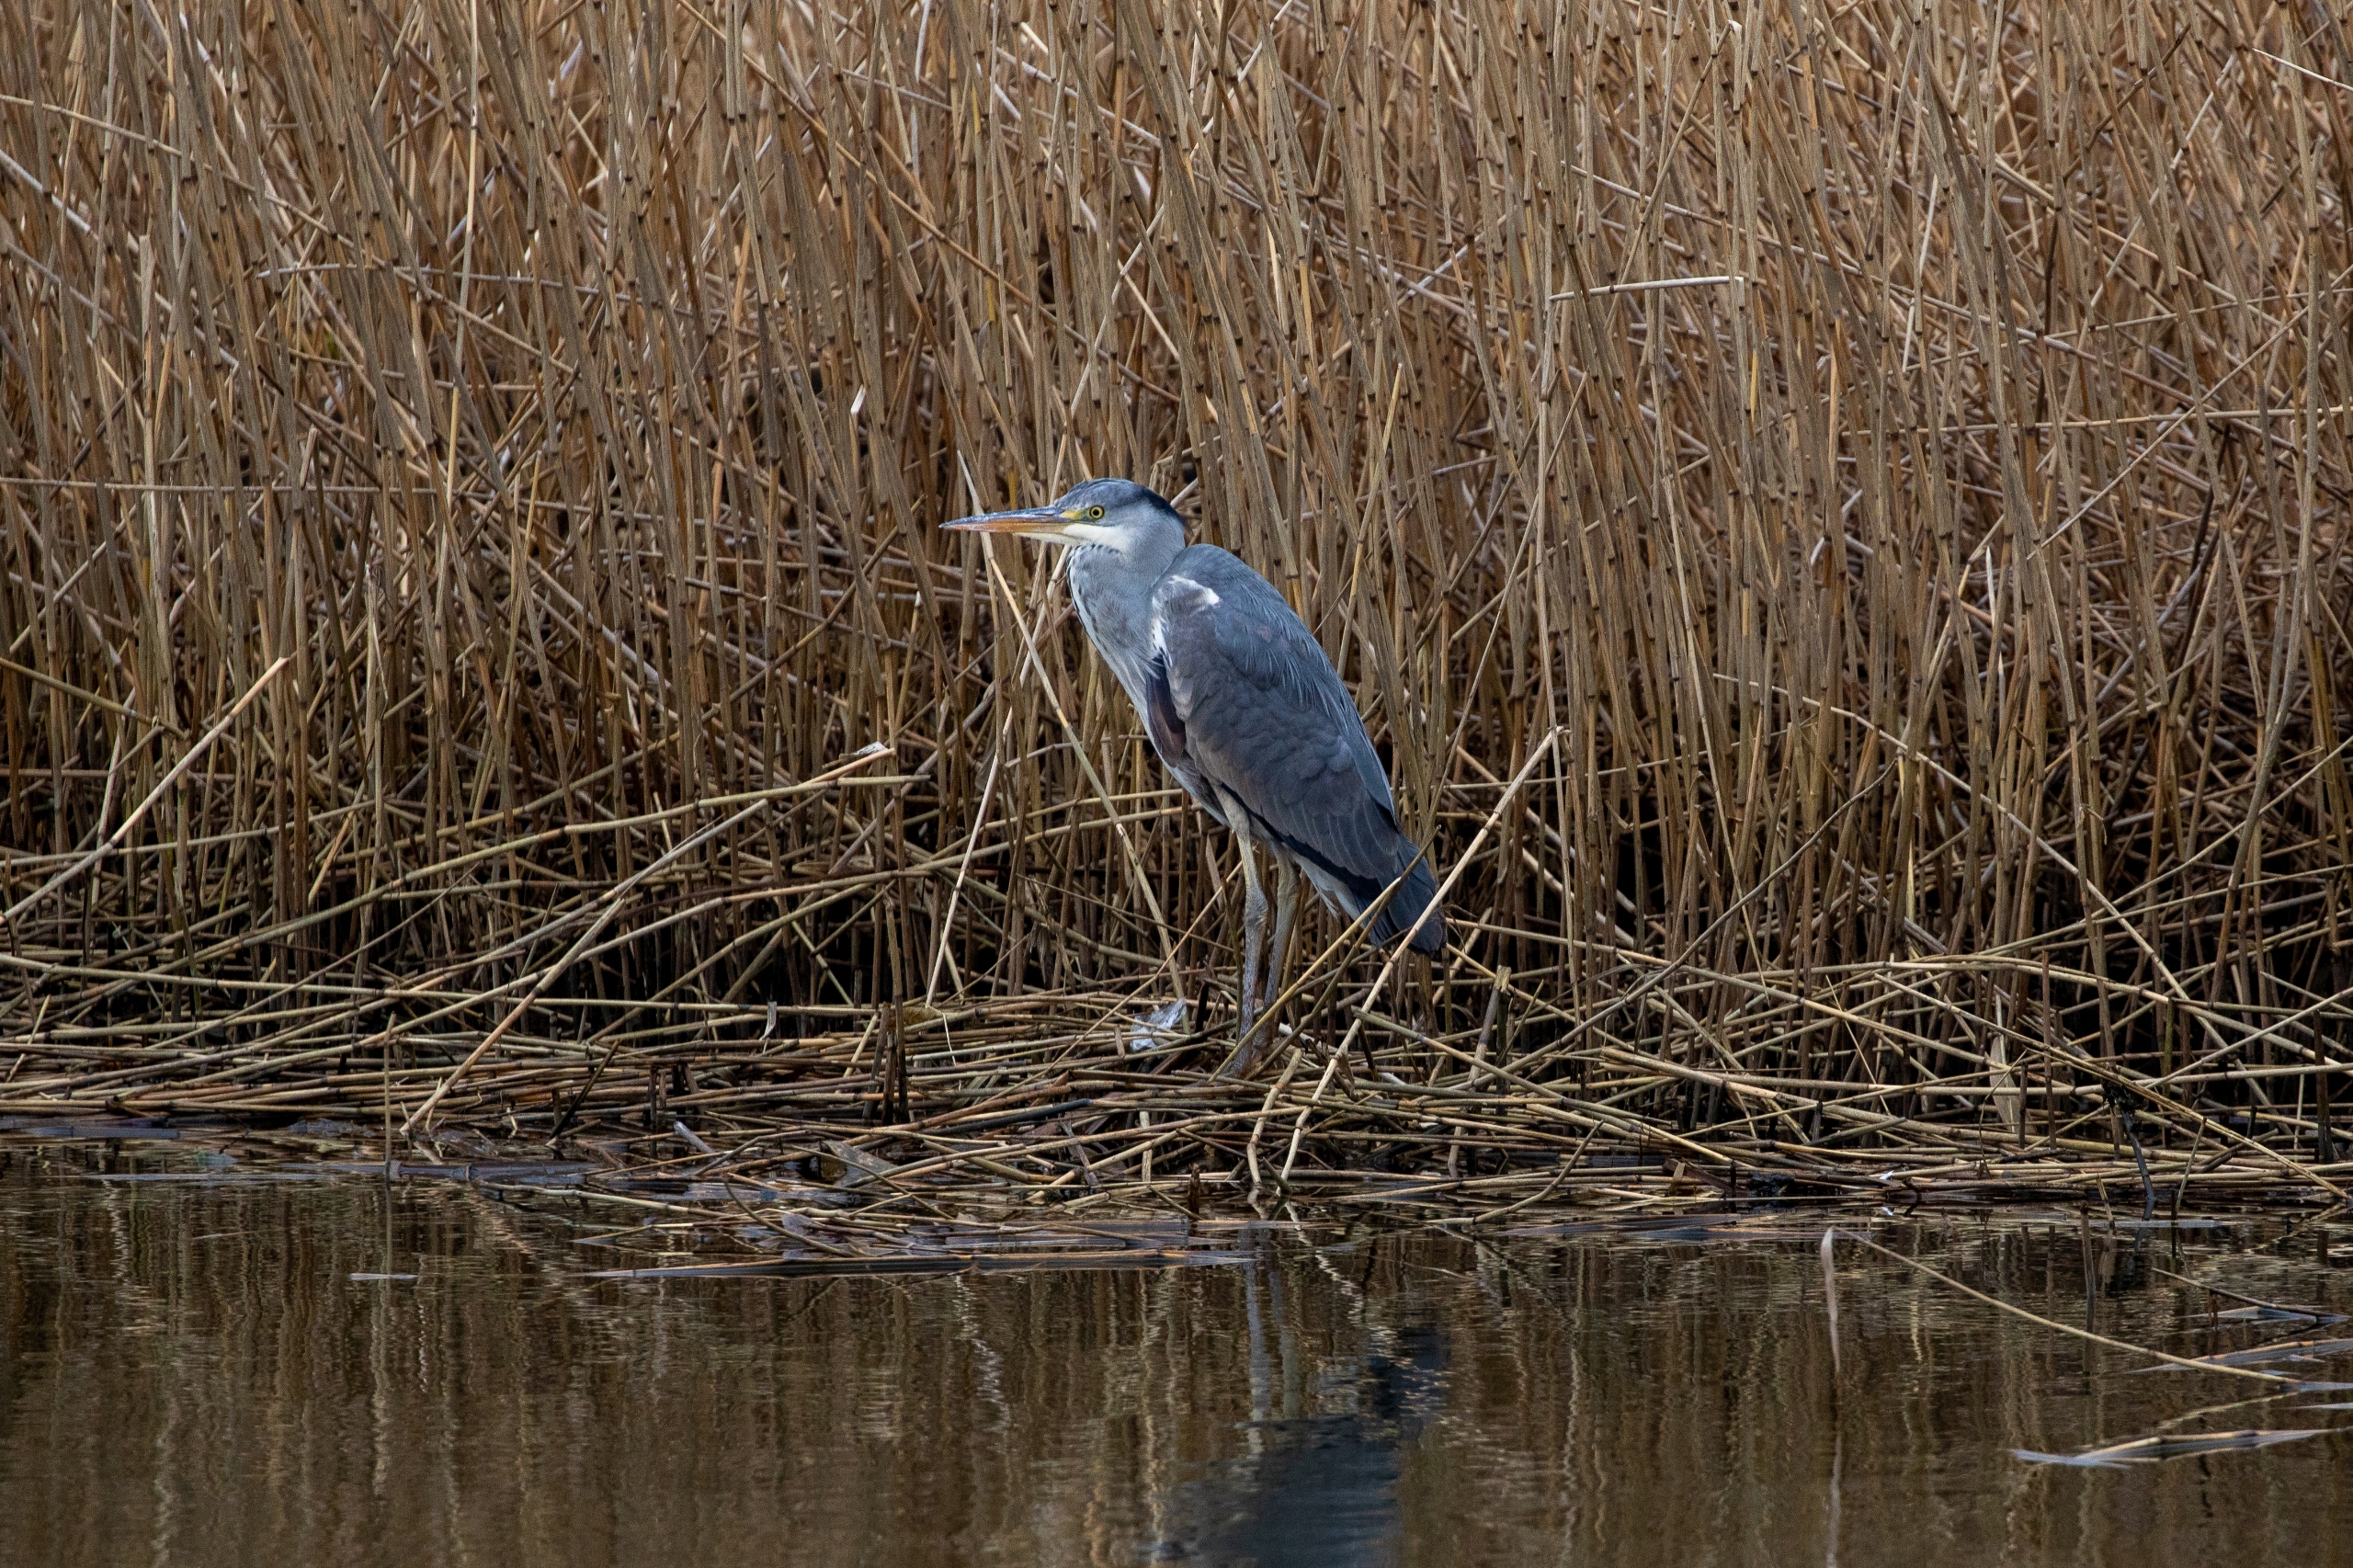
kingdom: Animalia
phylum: Chordata
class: Aves
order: Pelecaniformes
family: Ardeidae
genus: Ardea
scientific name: Ardea cinerea
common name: Fiskehejre
